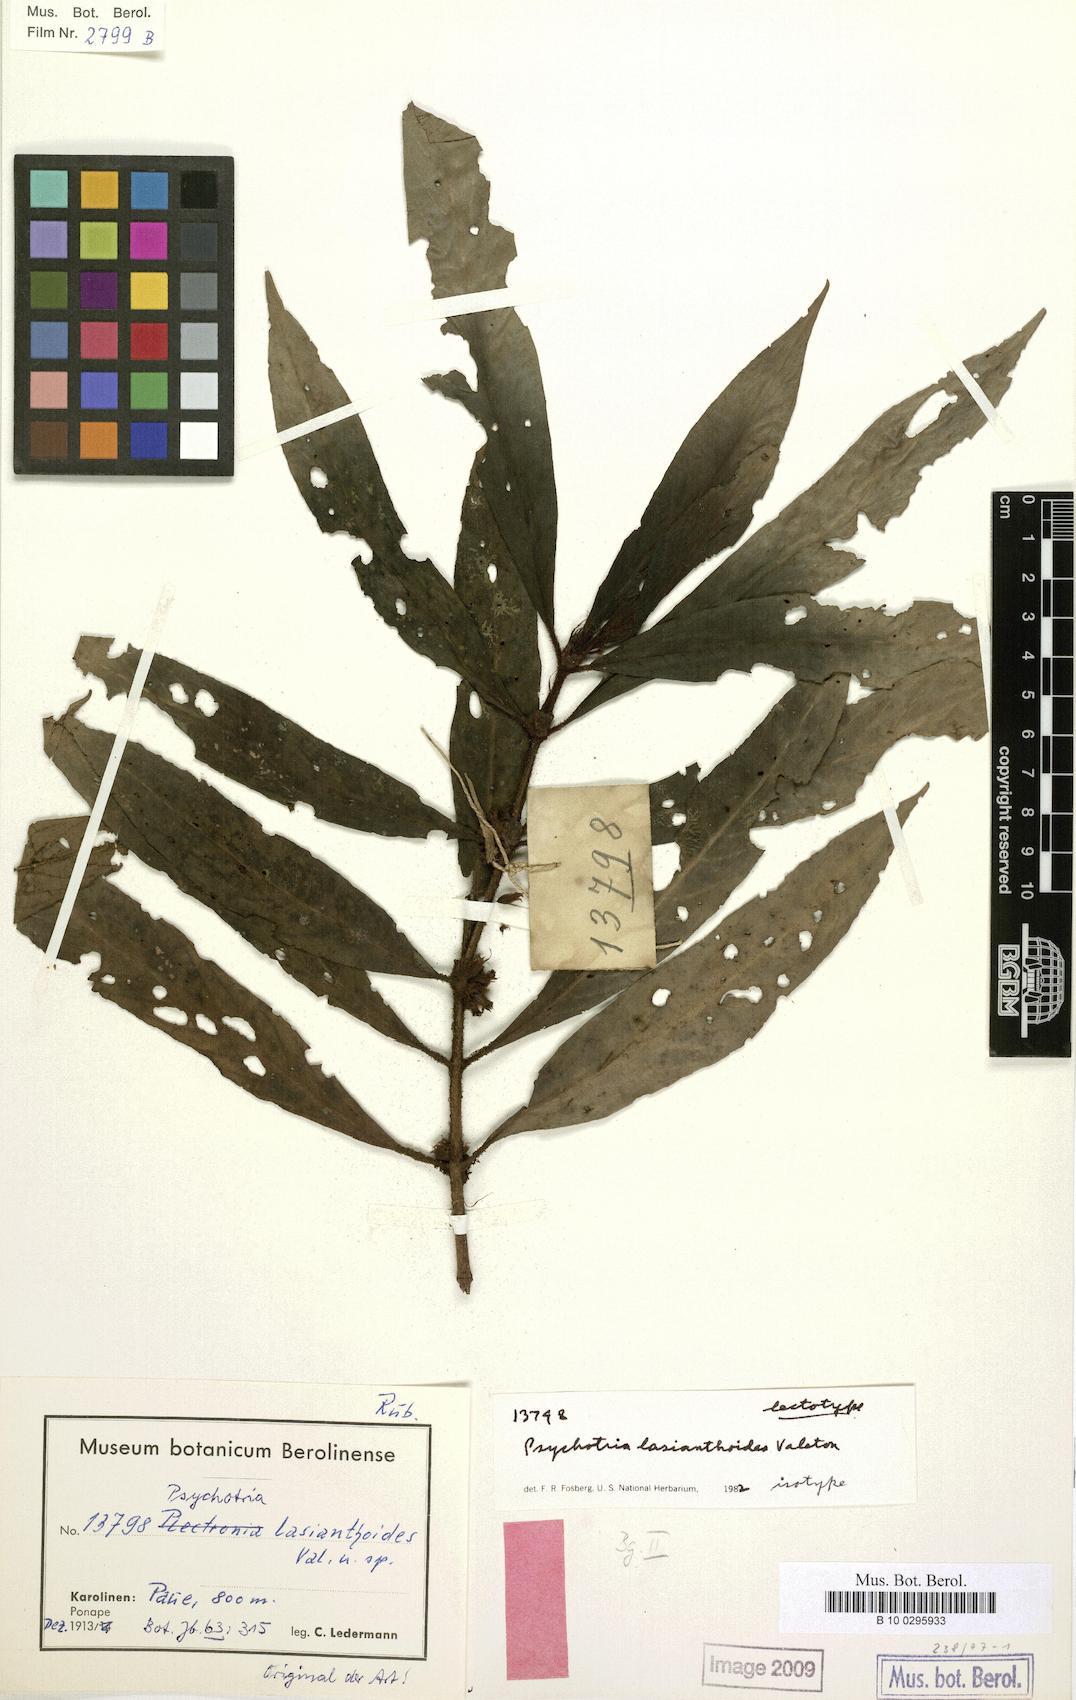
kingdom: Plantae
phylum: Tracheophyta
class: Magnoliopsida
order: Gentianales
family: Rubiaceae
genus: Psychotria
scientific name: Psychotria lasianthoides
